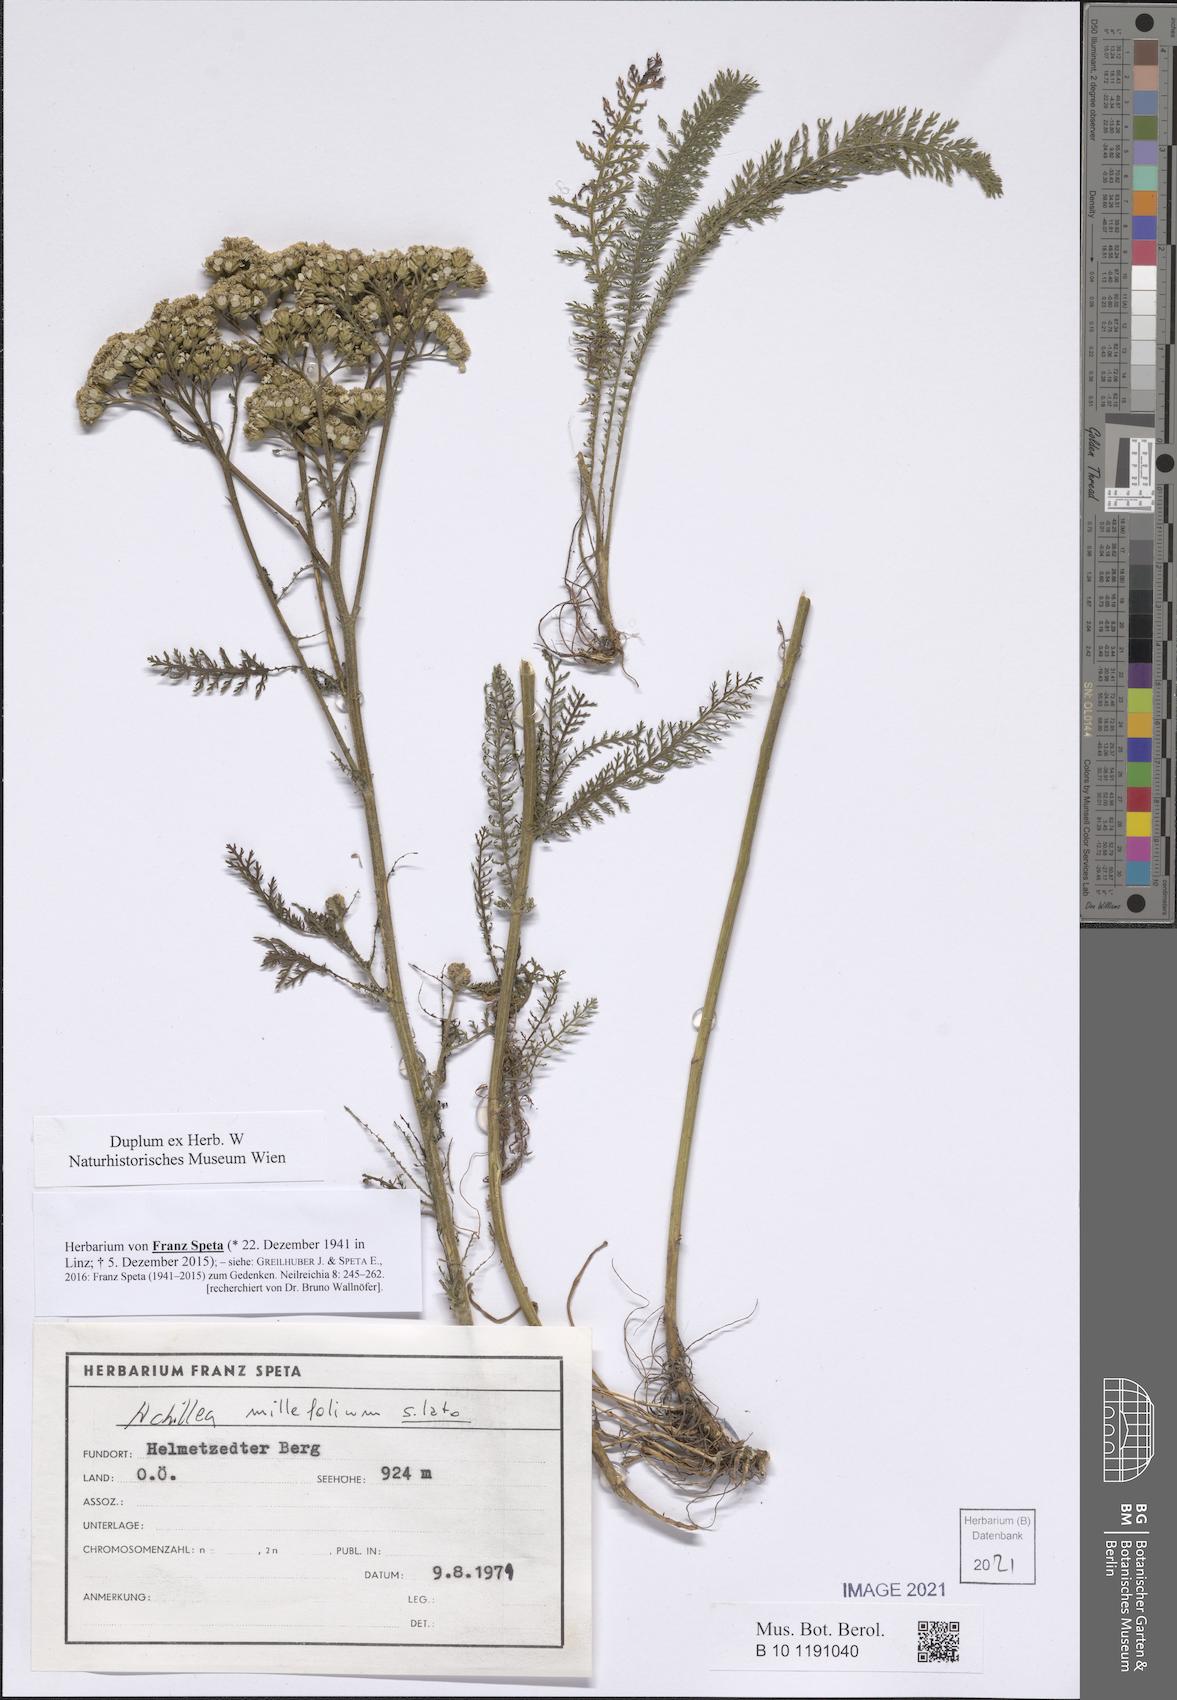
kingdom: Plantae
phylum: Tracheophyta
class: Magnoliopsida
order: Asterales
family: Asteraceae
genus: Achillea
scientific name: Achillea millefolium
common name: Yarrow
